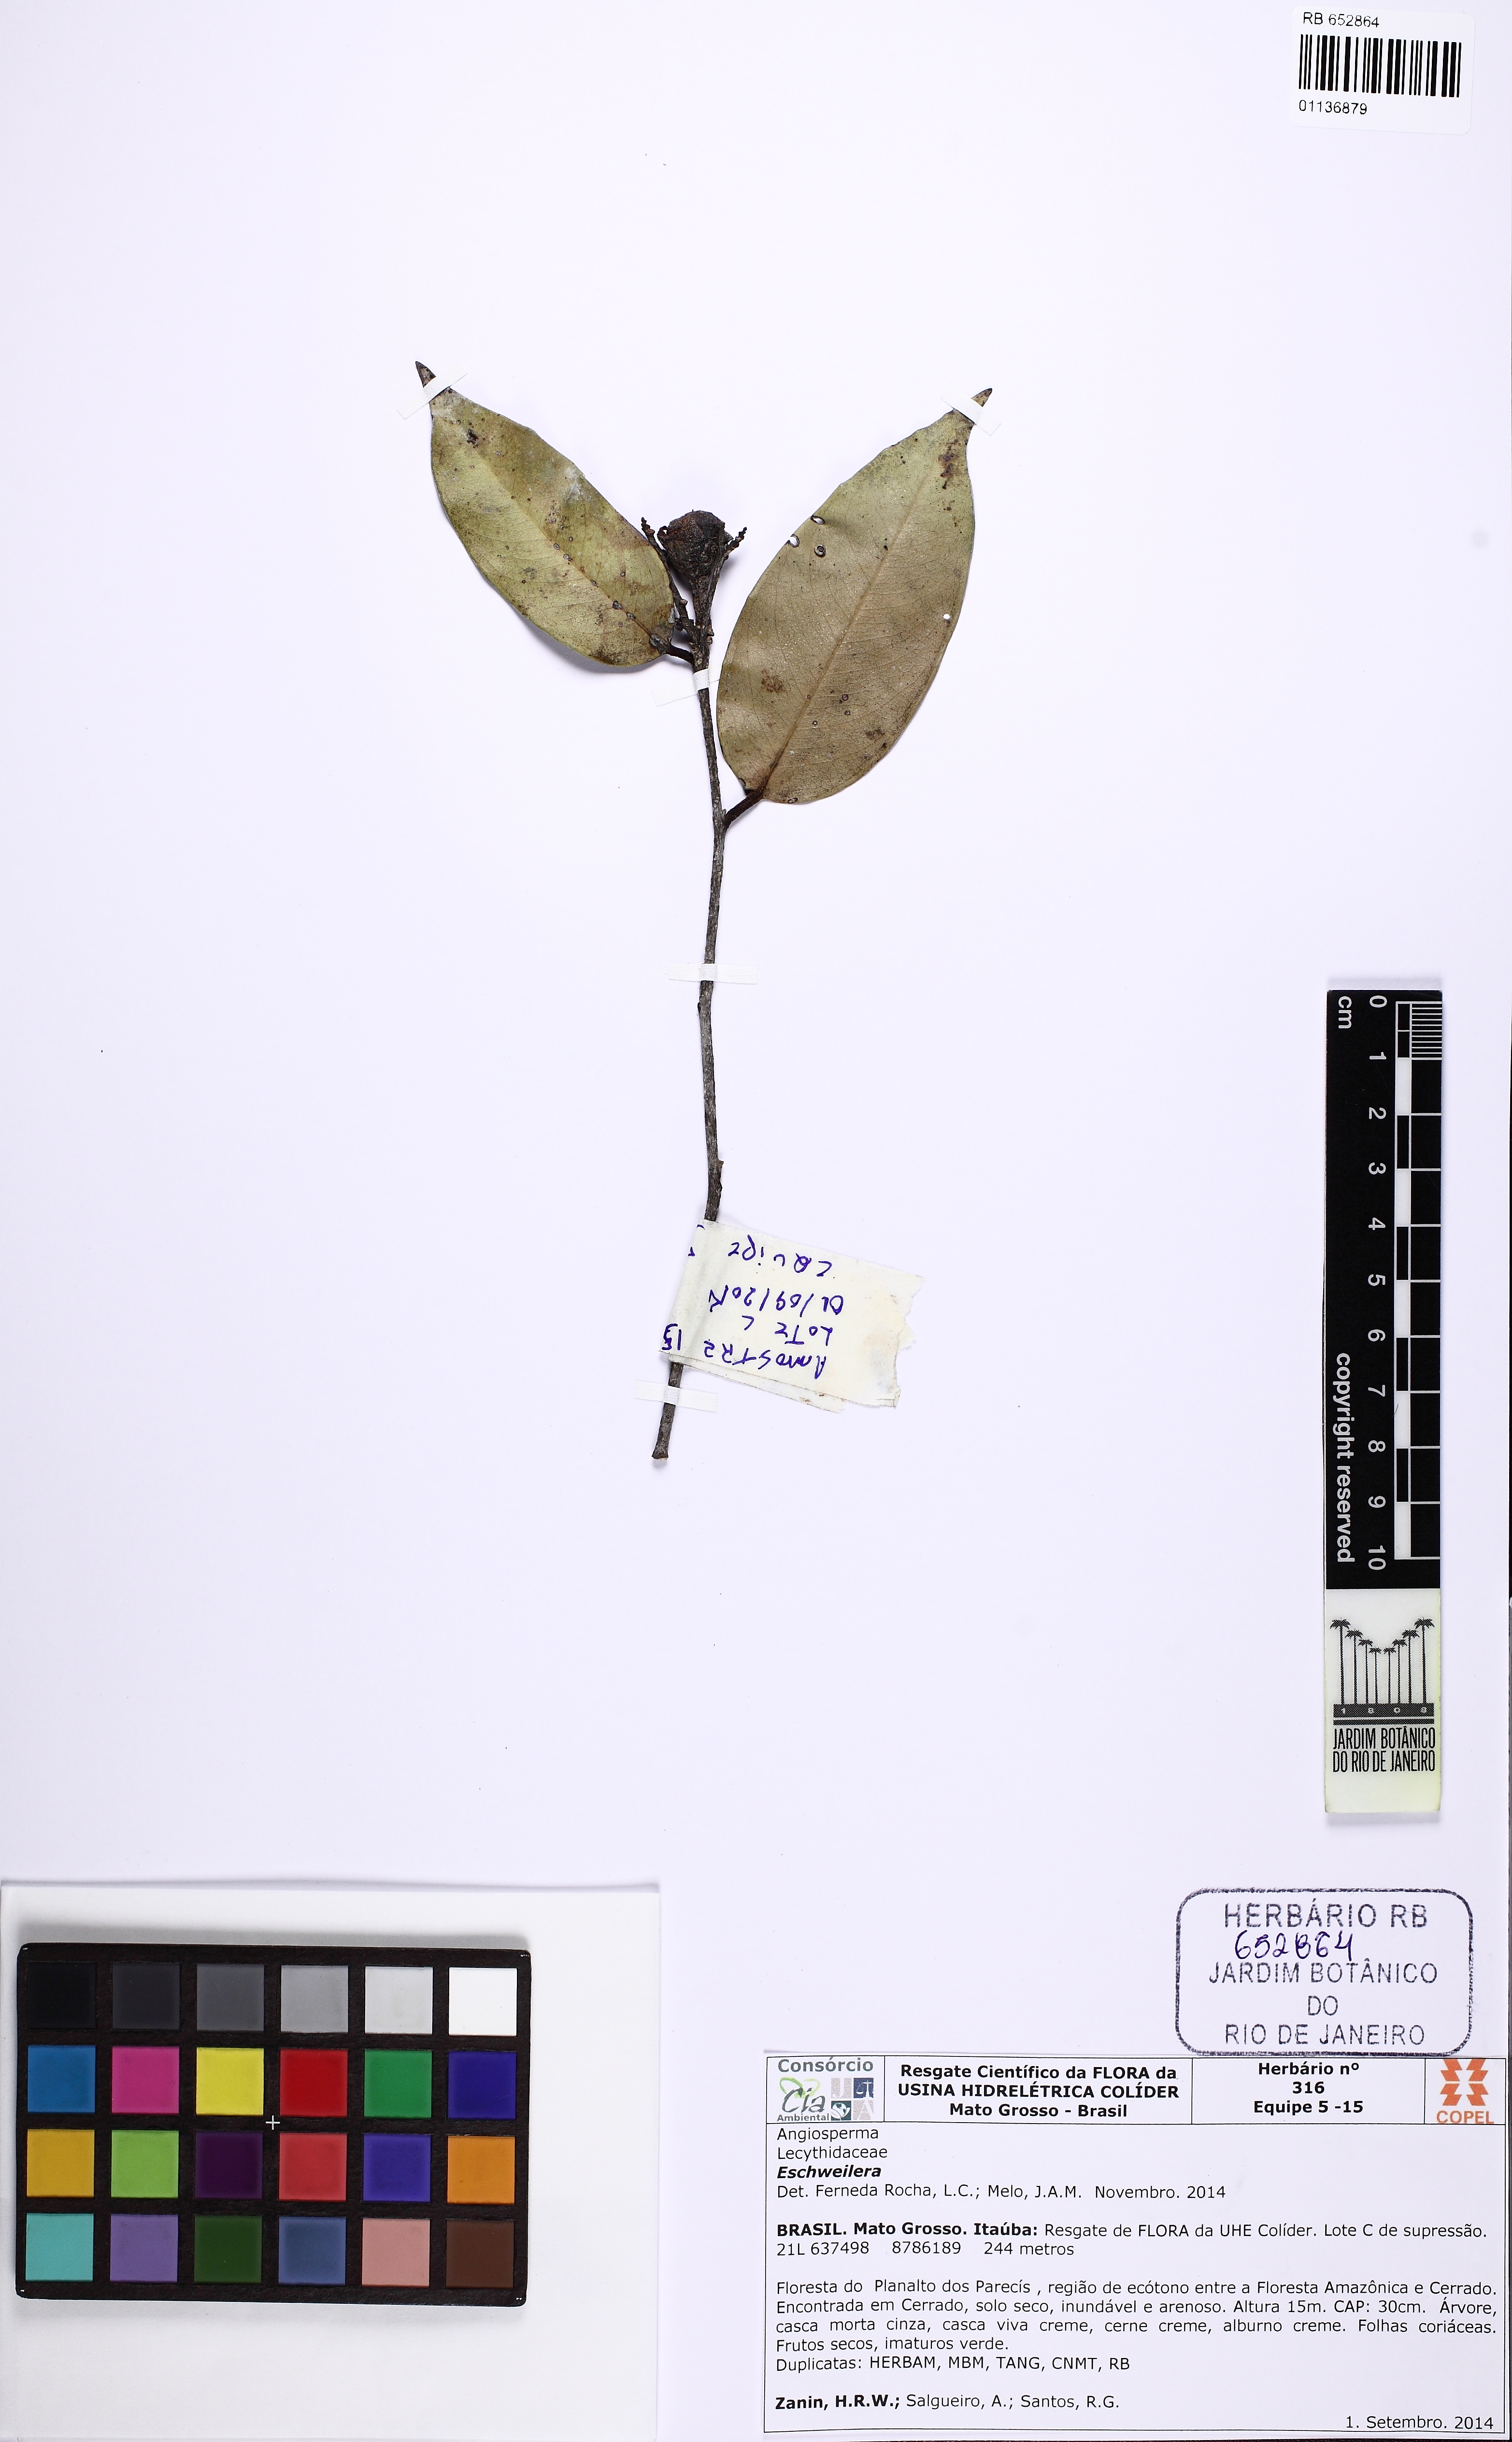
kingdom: Plantae
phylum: Tracheophyta
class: Magnoliopsida
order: Ericales
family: Lecythidaceae
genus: Eschweilera
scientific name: Eschweilera parvifolia
